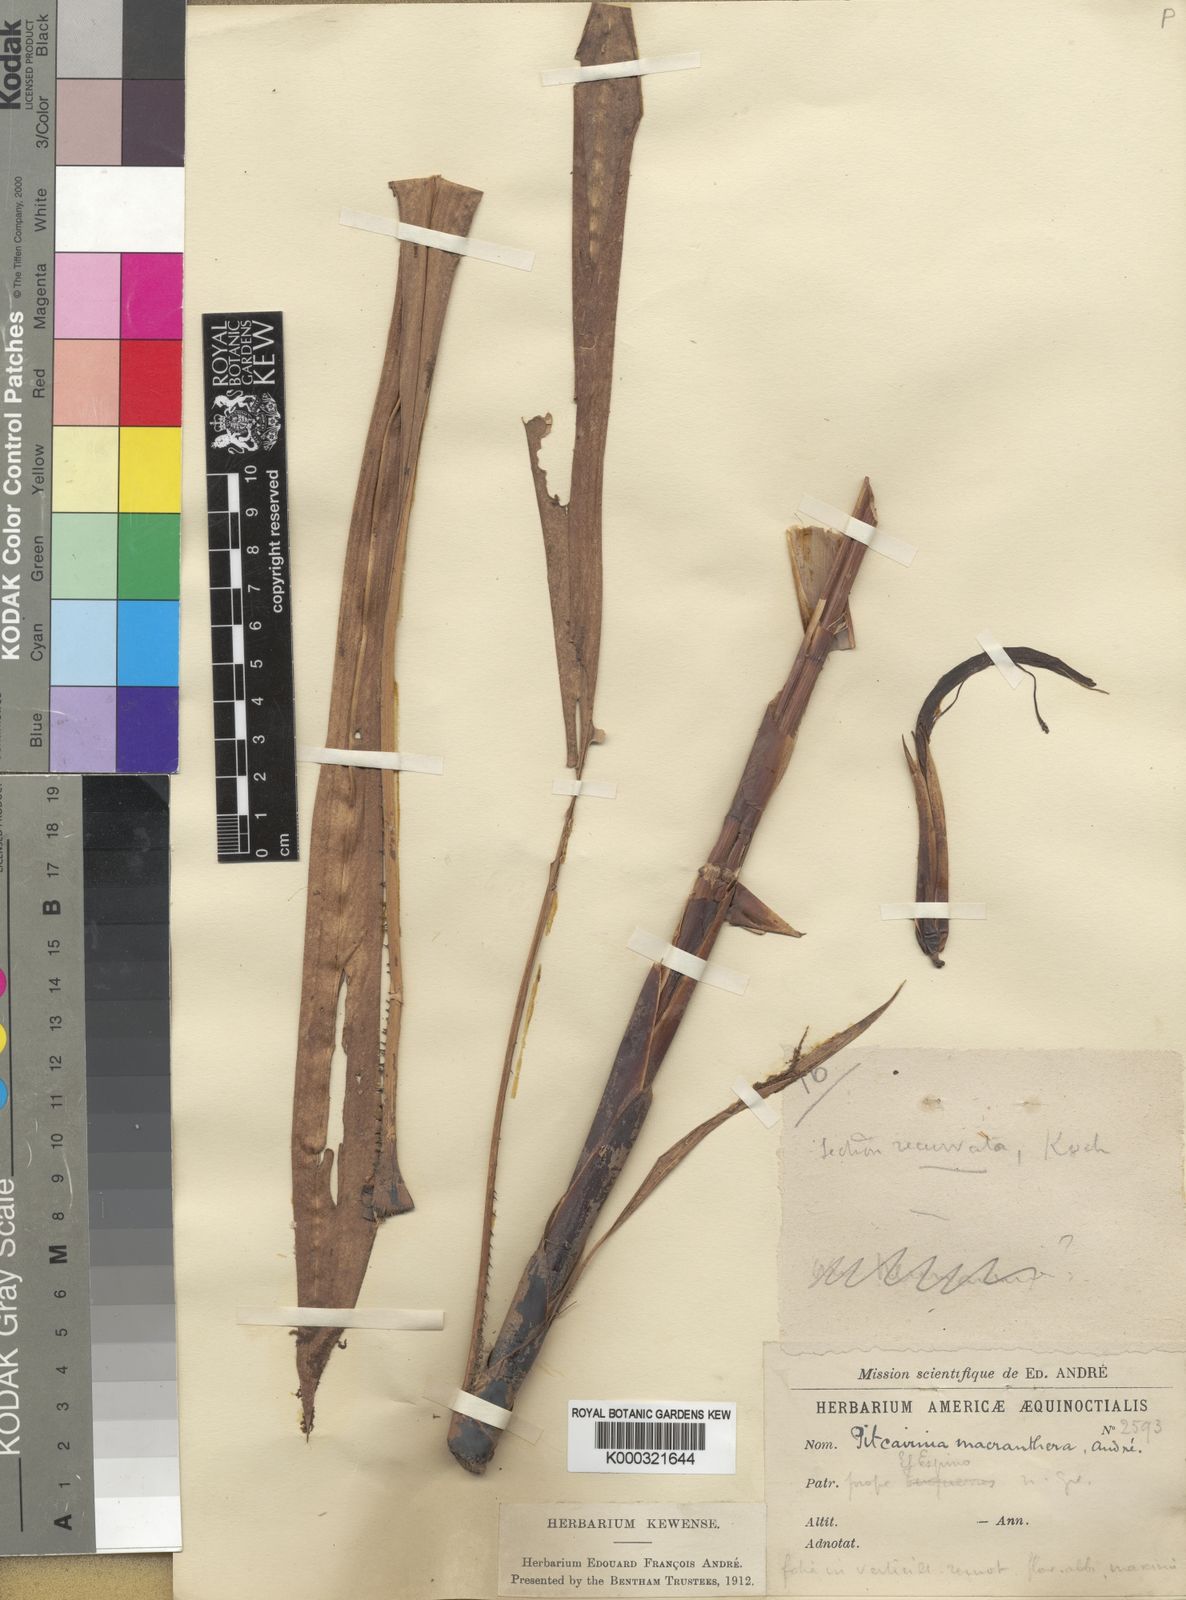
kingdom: Plantae
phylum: Tracheophyta
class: Liliopsida
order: Poales
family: Bromeliaceae
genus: Pitcairnia
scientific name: Pitcairnia
